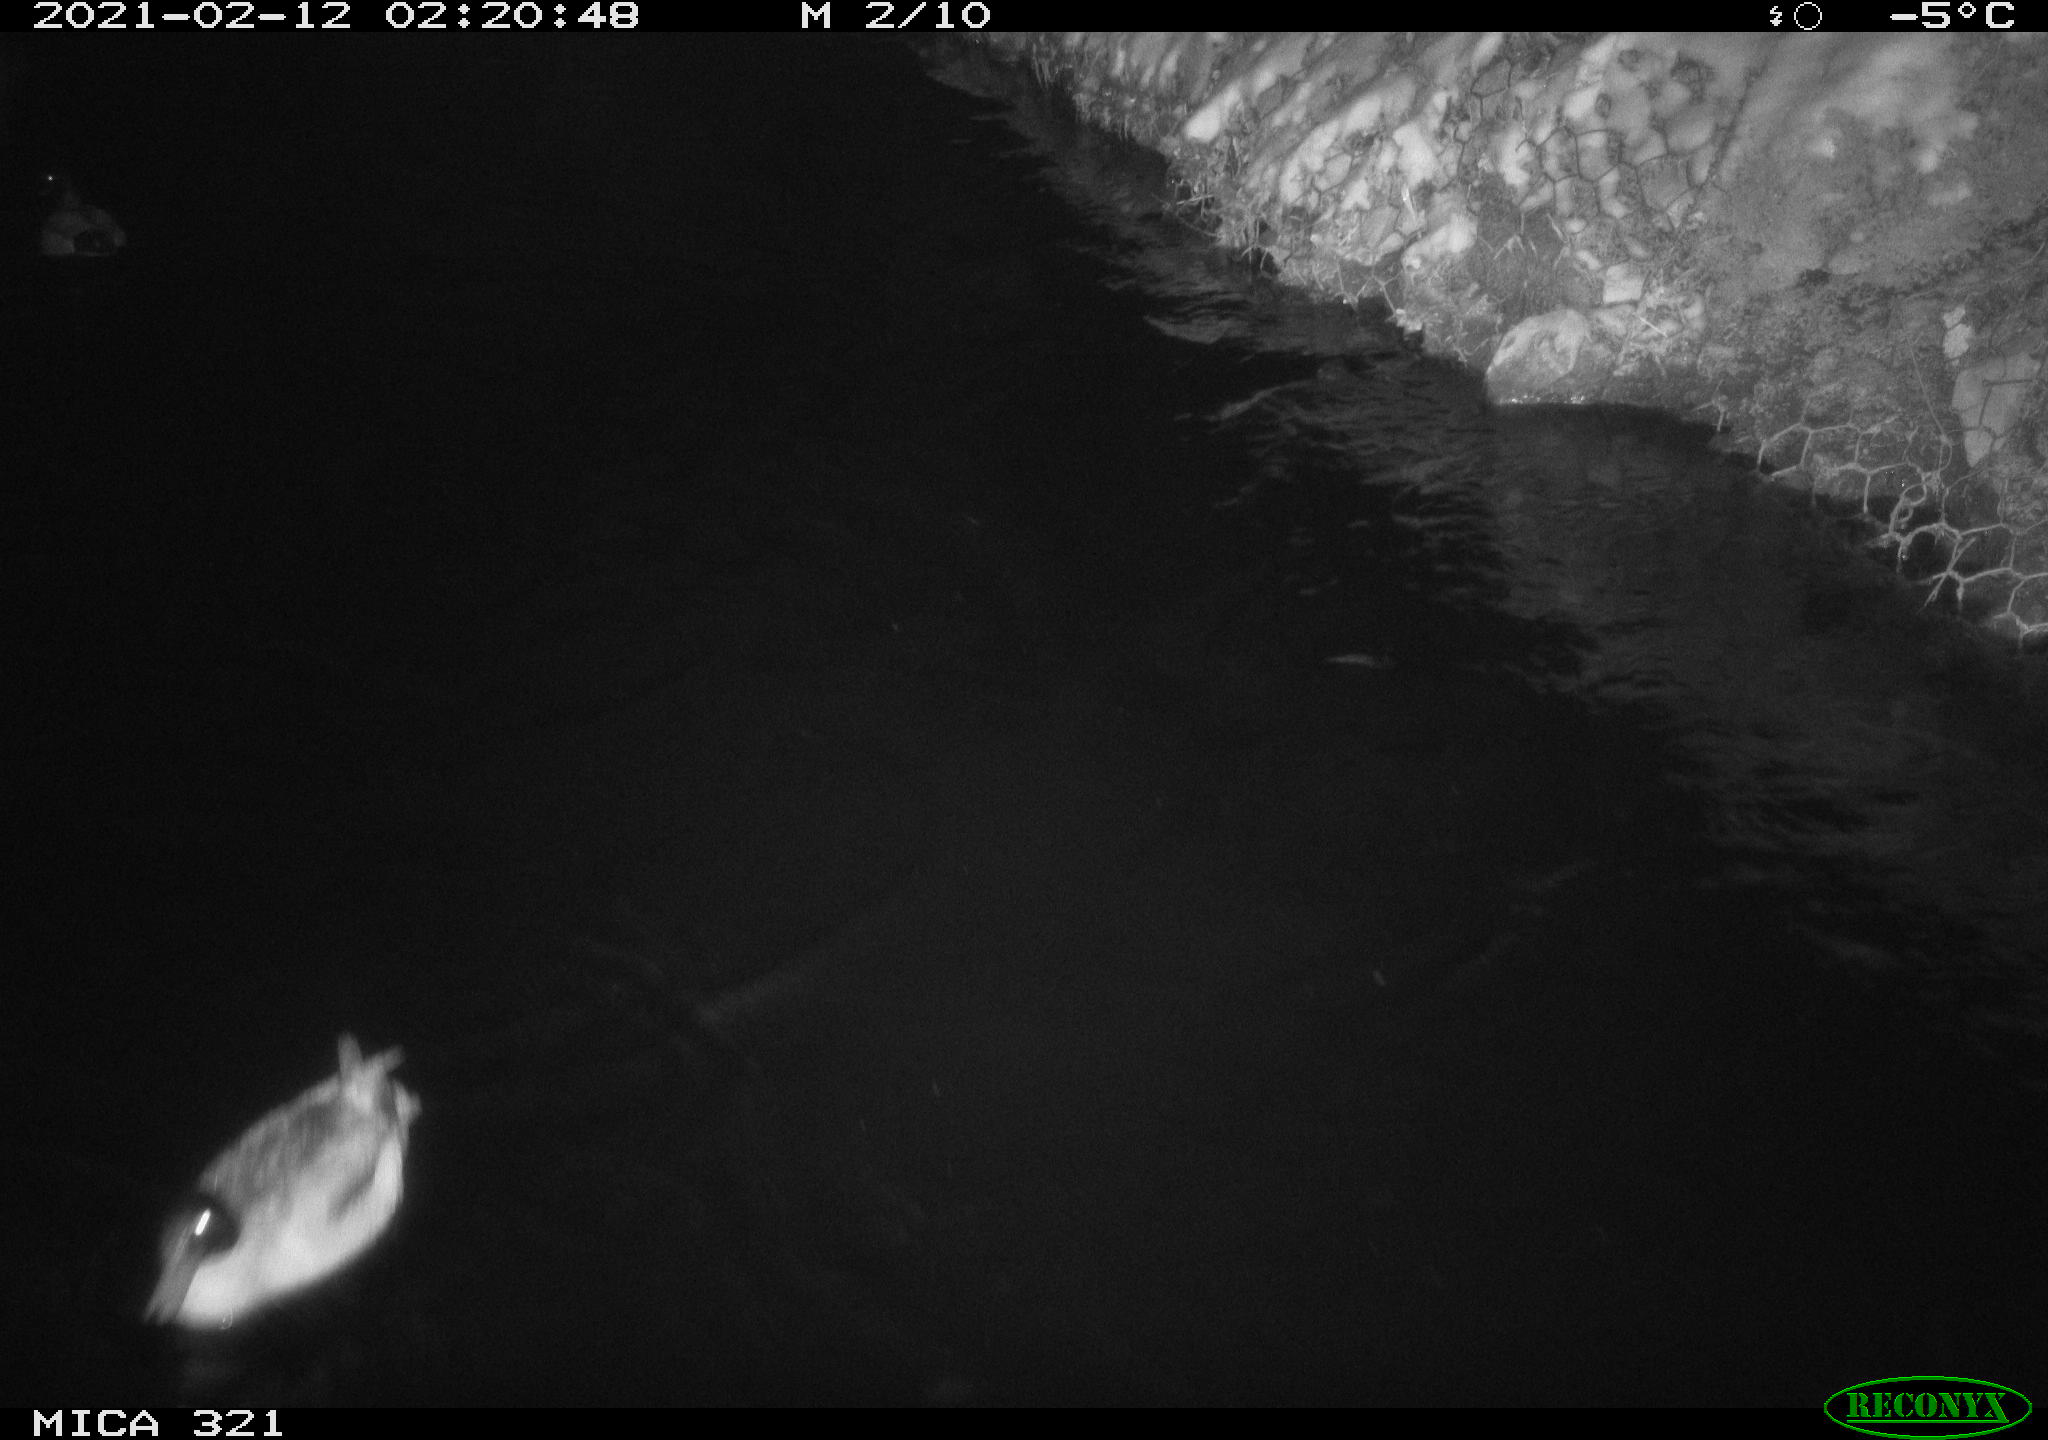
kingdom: Animalia
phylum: Chordata
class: Aves
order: Anseriformes
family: Anatidae
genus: Anas
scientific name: Anas platyrhynchos
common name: Mallard
